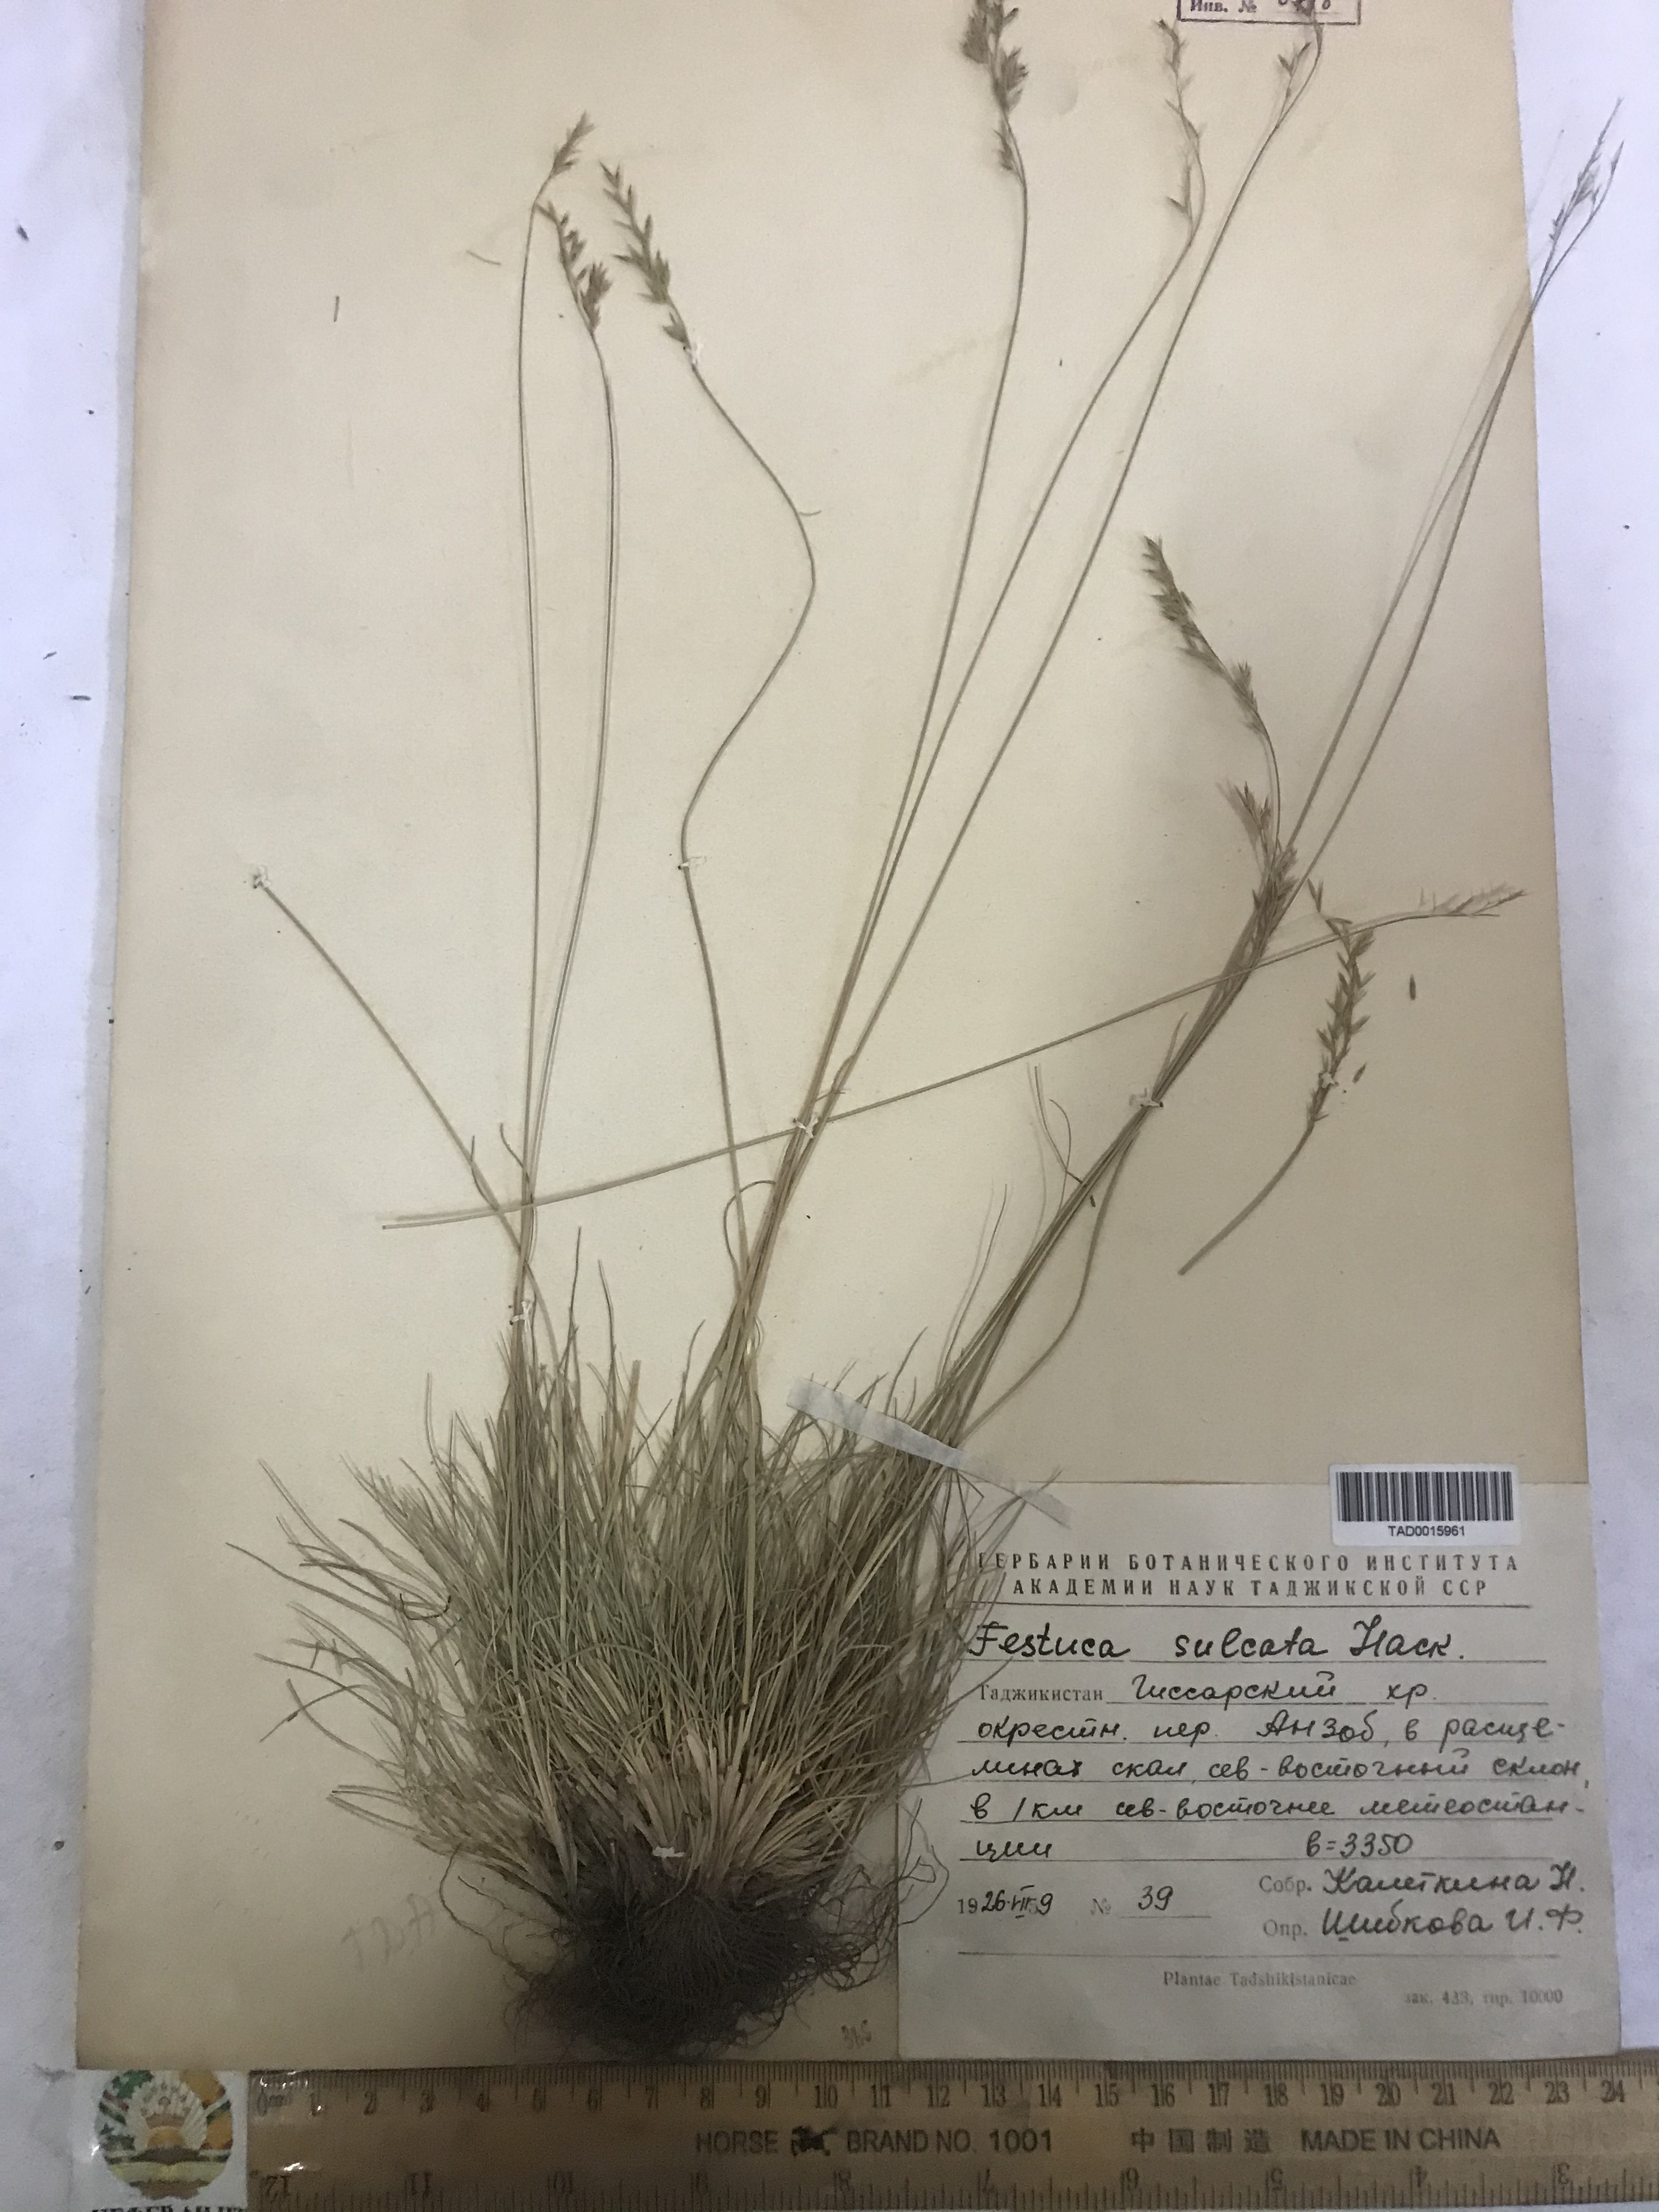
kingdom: Plantae
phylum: Tracheophyta
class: Liliopsida
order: Poales
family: Poaceae
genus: Festuca
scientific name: Festuca sulcata
